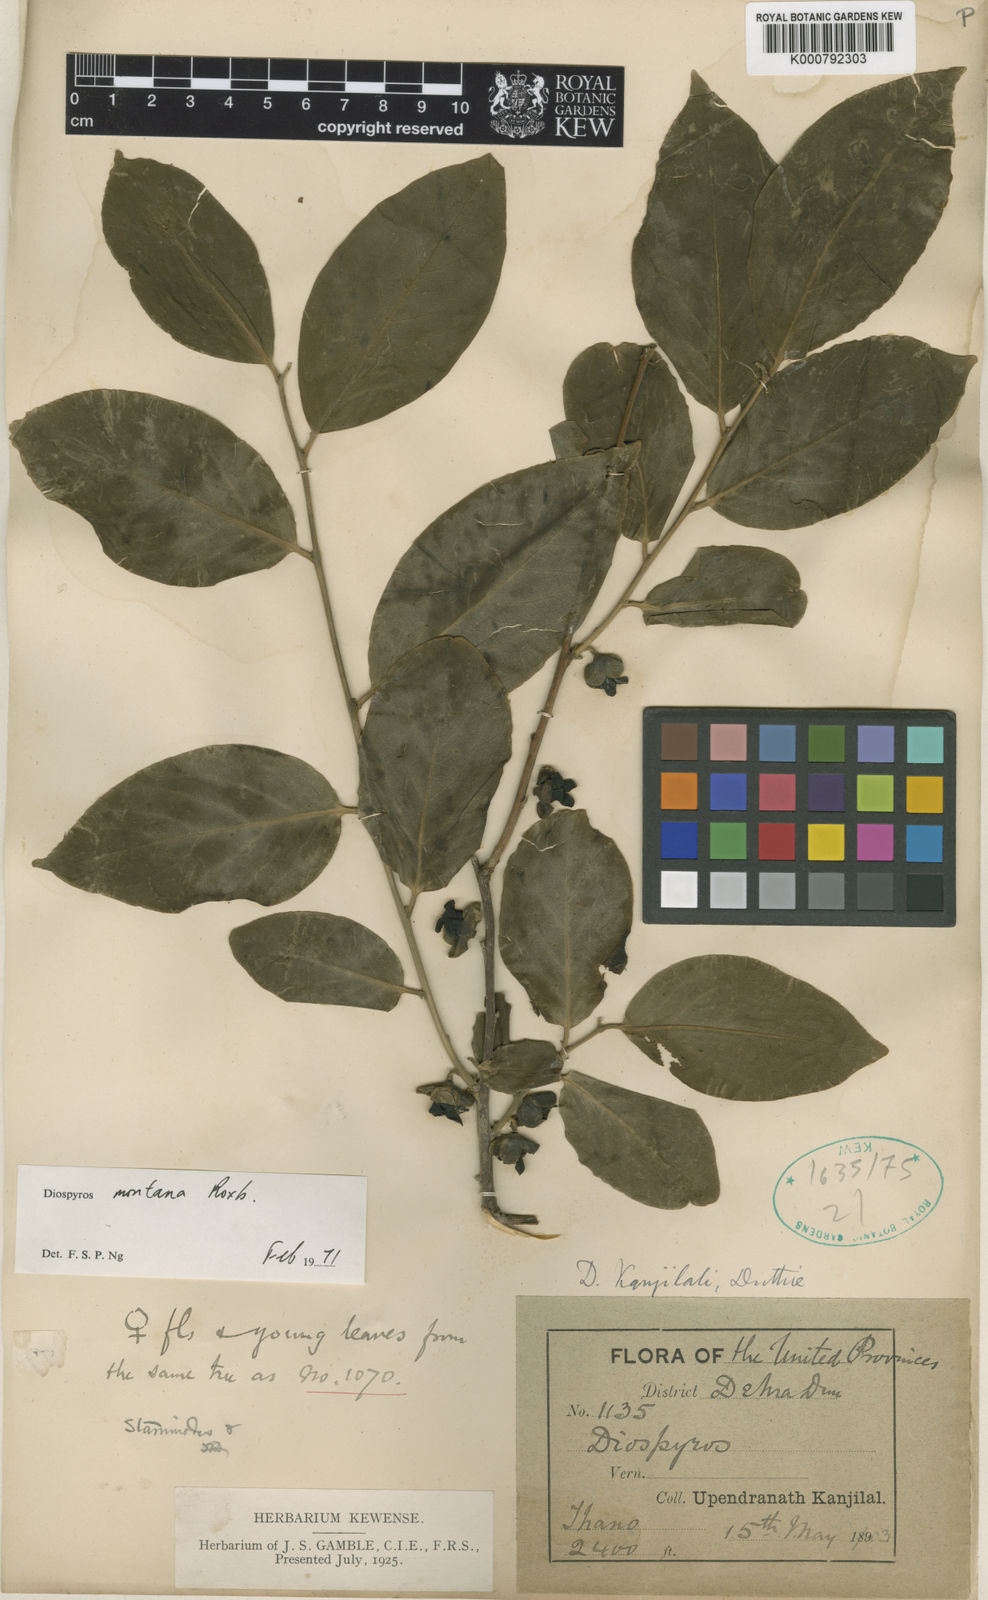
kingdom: Plantae
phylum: Tracheophyta
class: Magnoliopsida
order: Ericales
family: Ebenaceae
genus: Diospyros
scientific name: Diospyros montana
